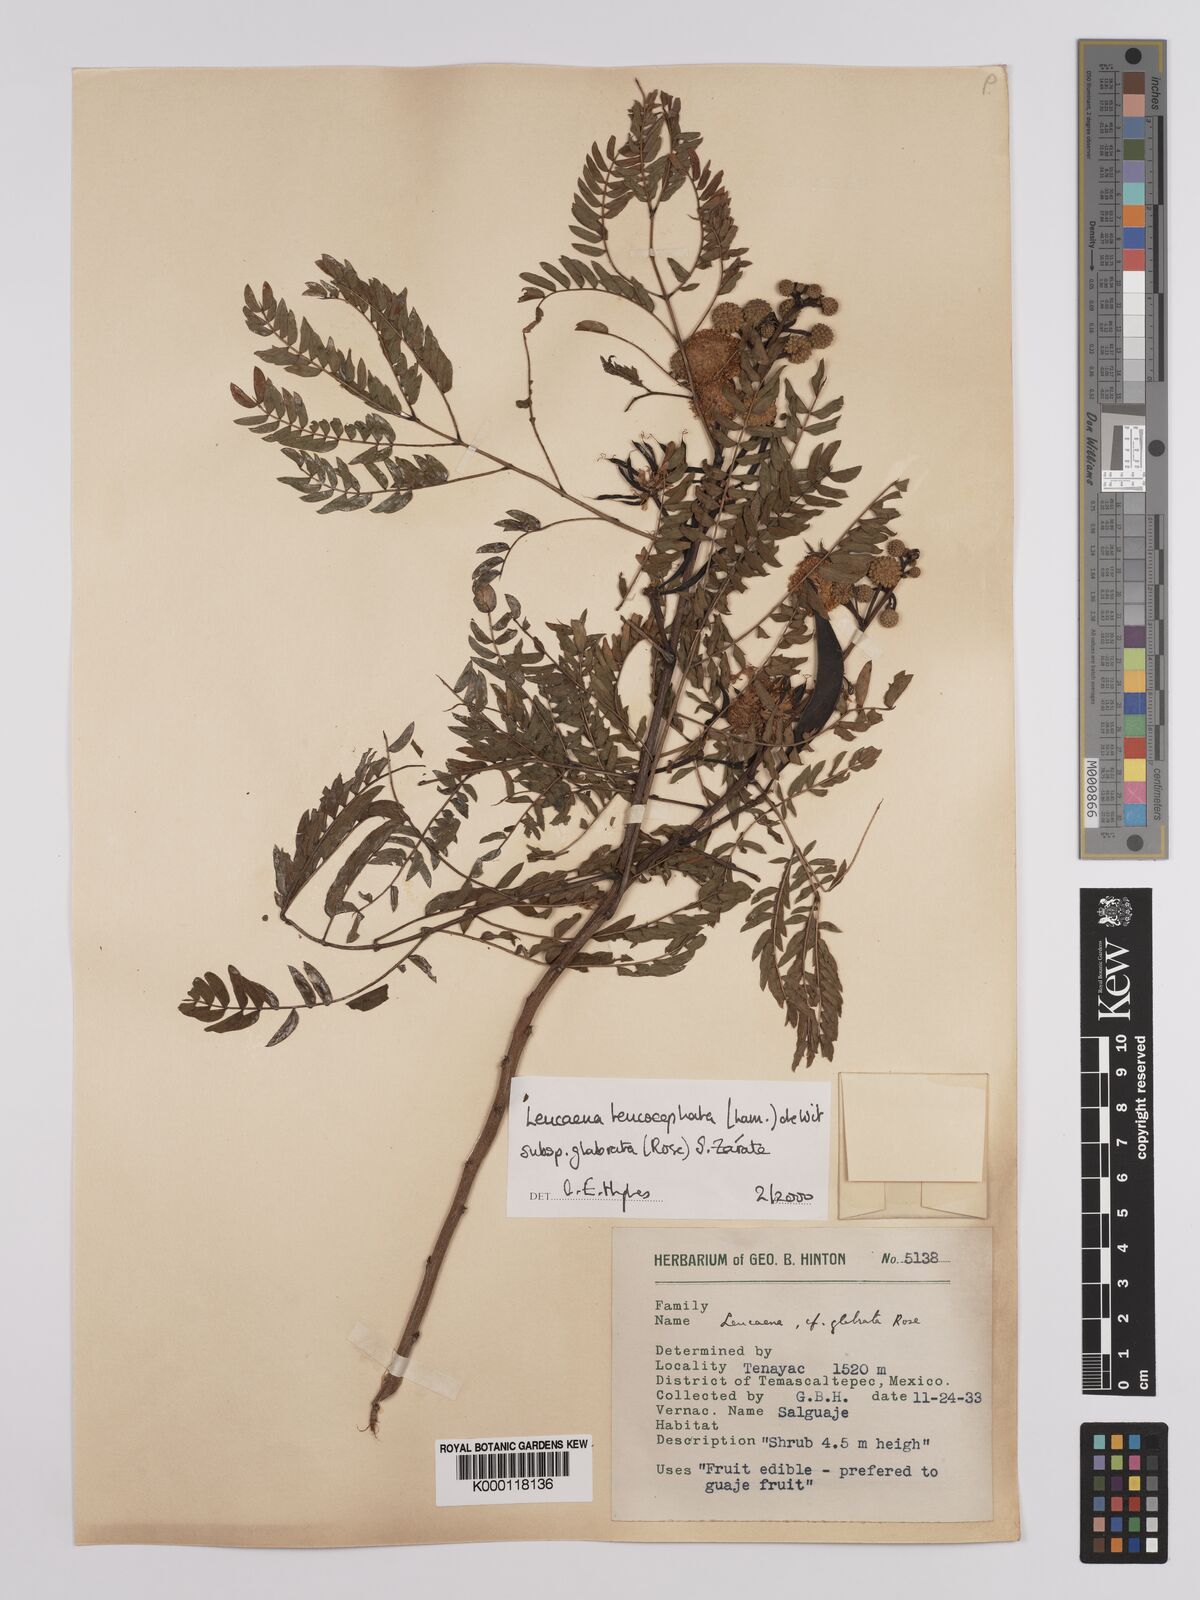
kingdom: Plantae
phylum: Tracheophyta
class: Magnoliopsida
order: Fabales
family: Fabaceae
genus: Leucaena
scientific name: Leucaena leucocephala
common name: White leadtree
